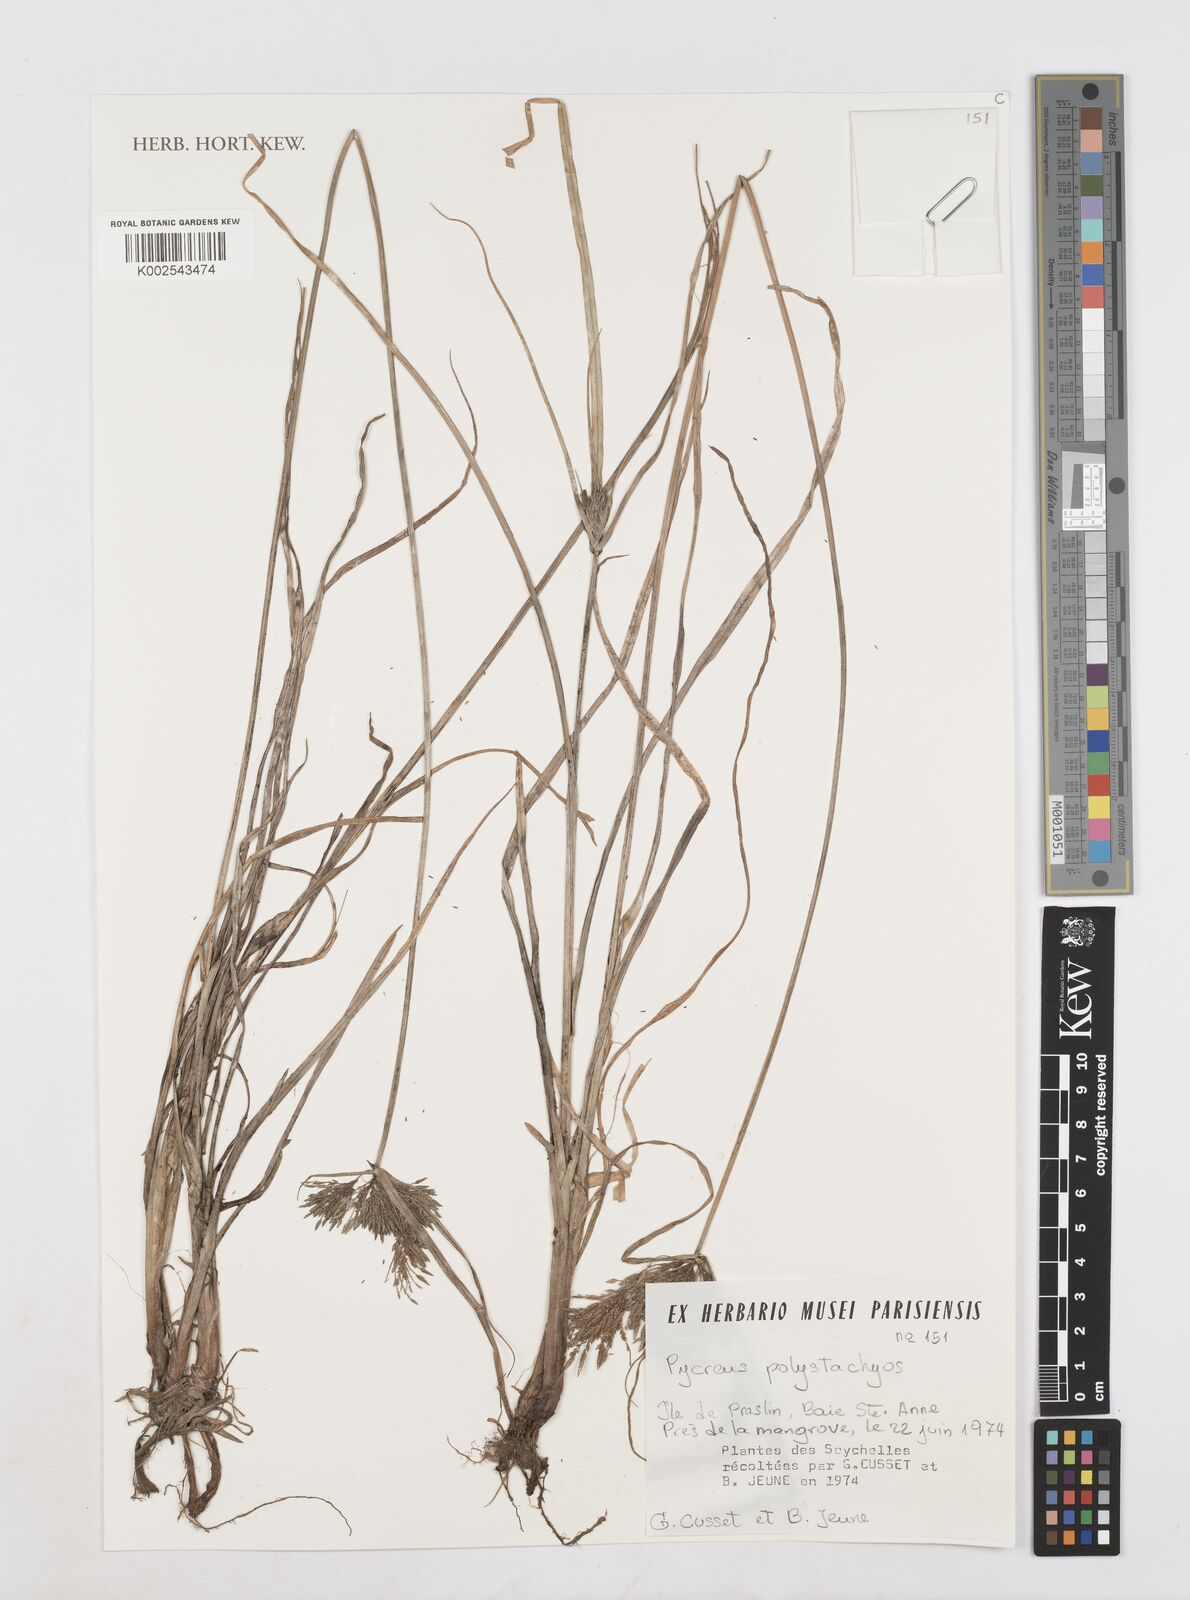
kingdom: Plantae
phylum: Tracheophyta
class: Liliopsida
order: Poales
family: Cyperaceae
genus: Cyperus
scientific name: Cyperus polystachyos
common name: Bunchy flat sedge
